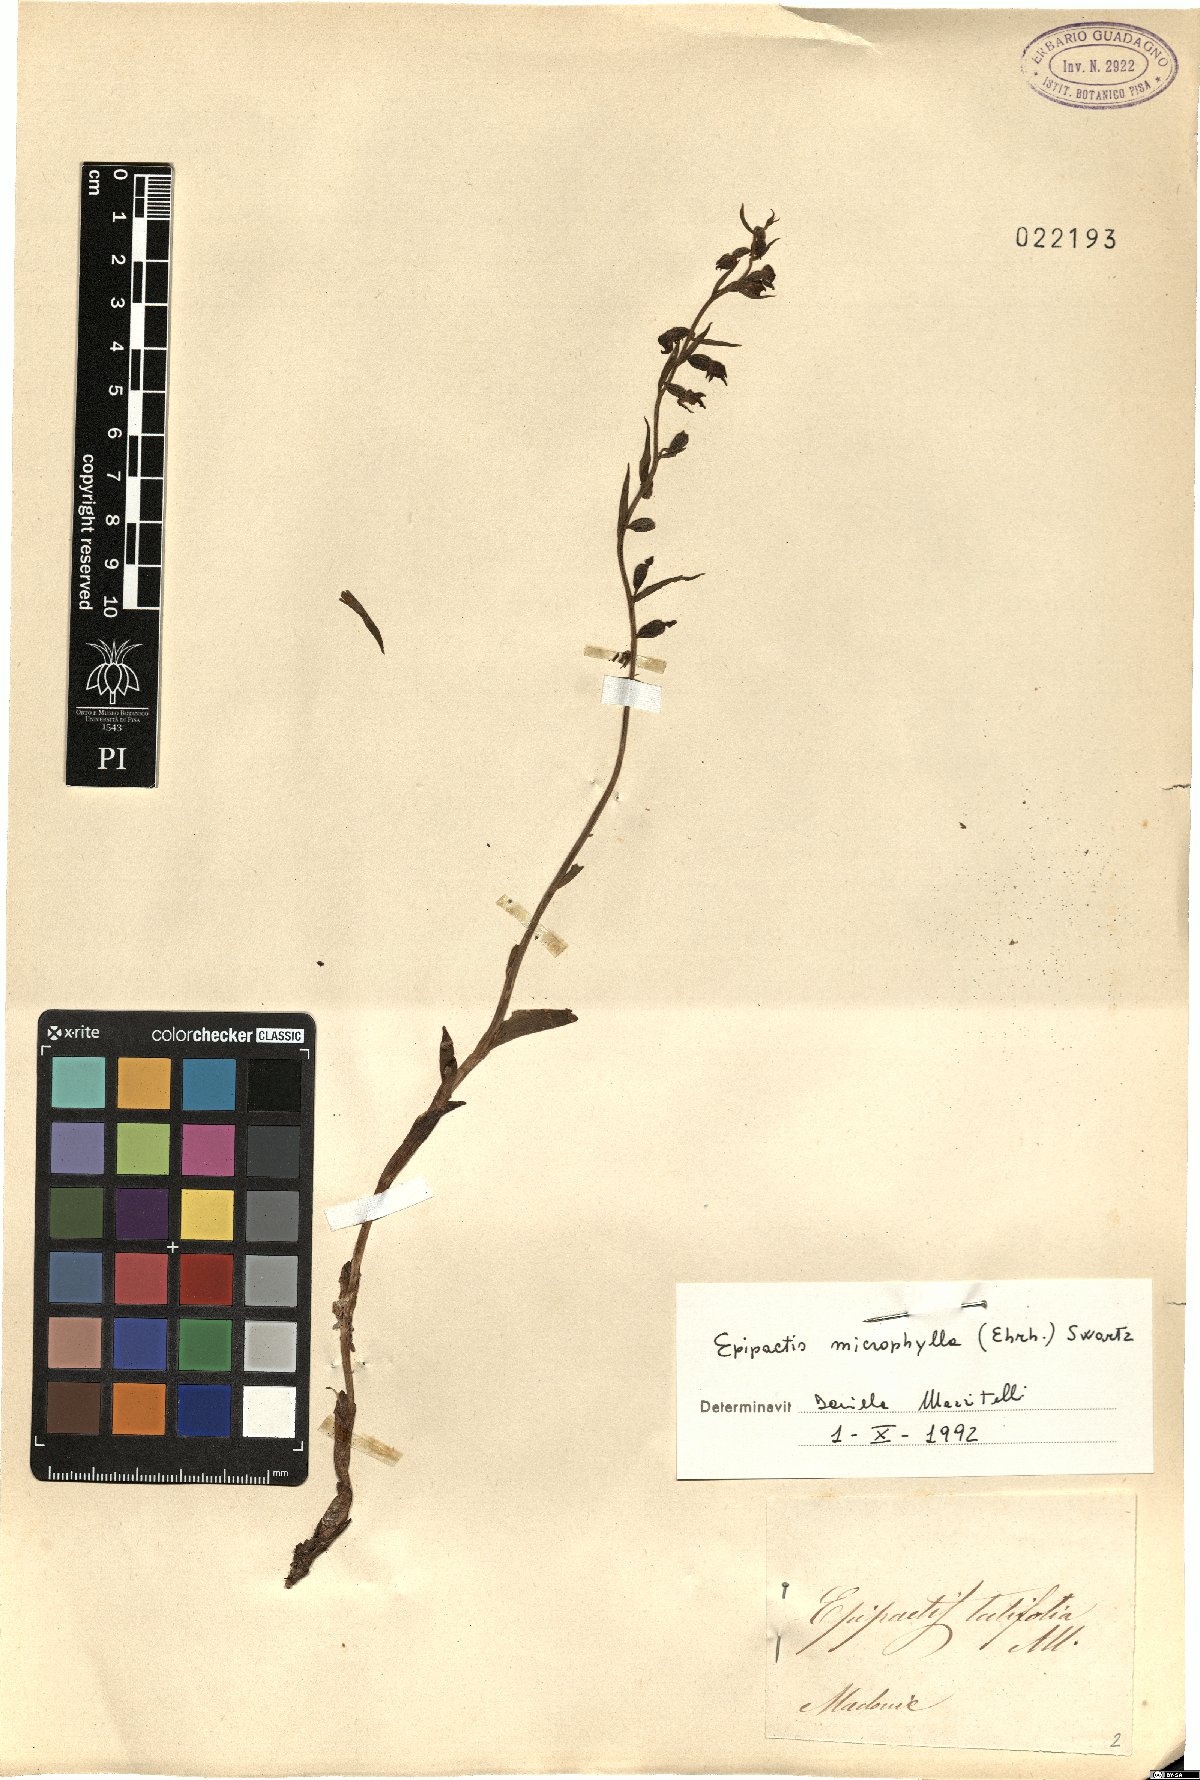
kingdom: Plantae
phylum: Tracheophyta
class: Liliopsida
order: Asparagales
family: Orchidaceae
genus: Epipactis
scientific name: Epipactis microphylla
